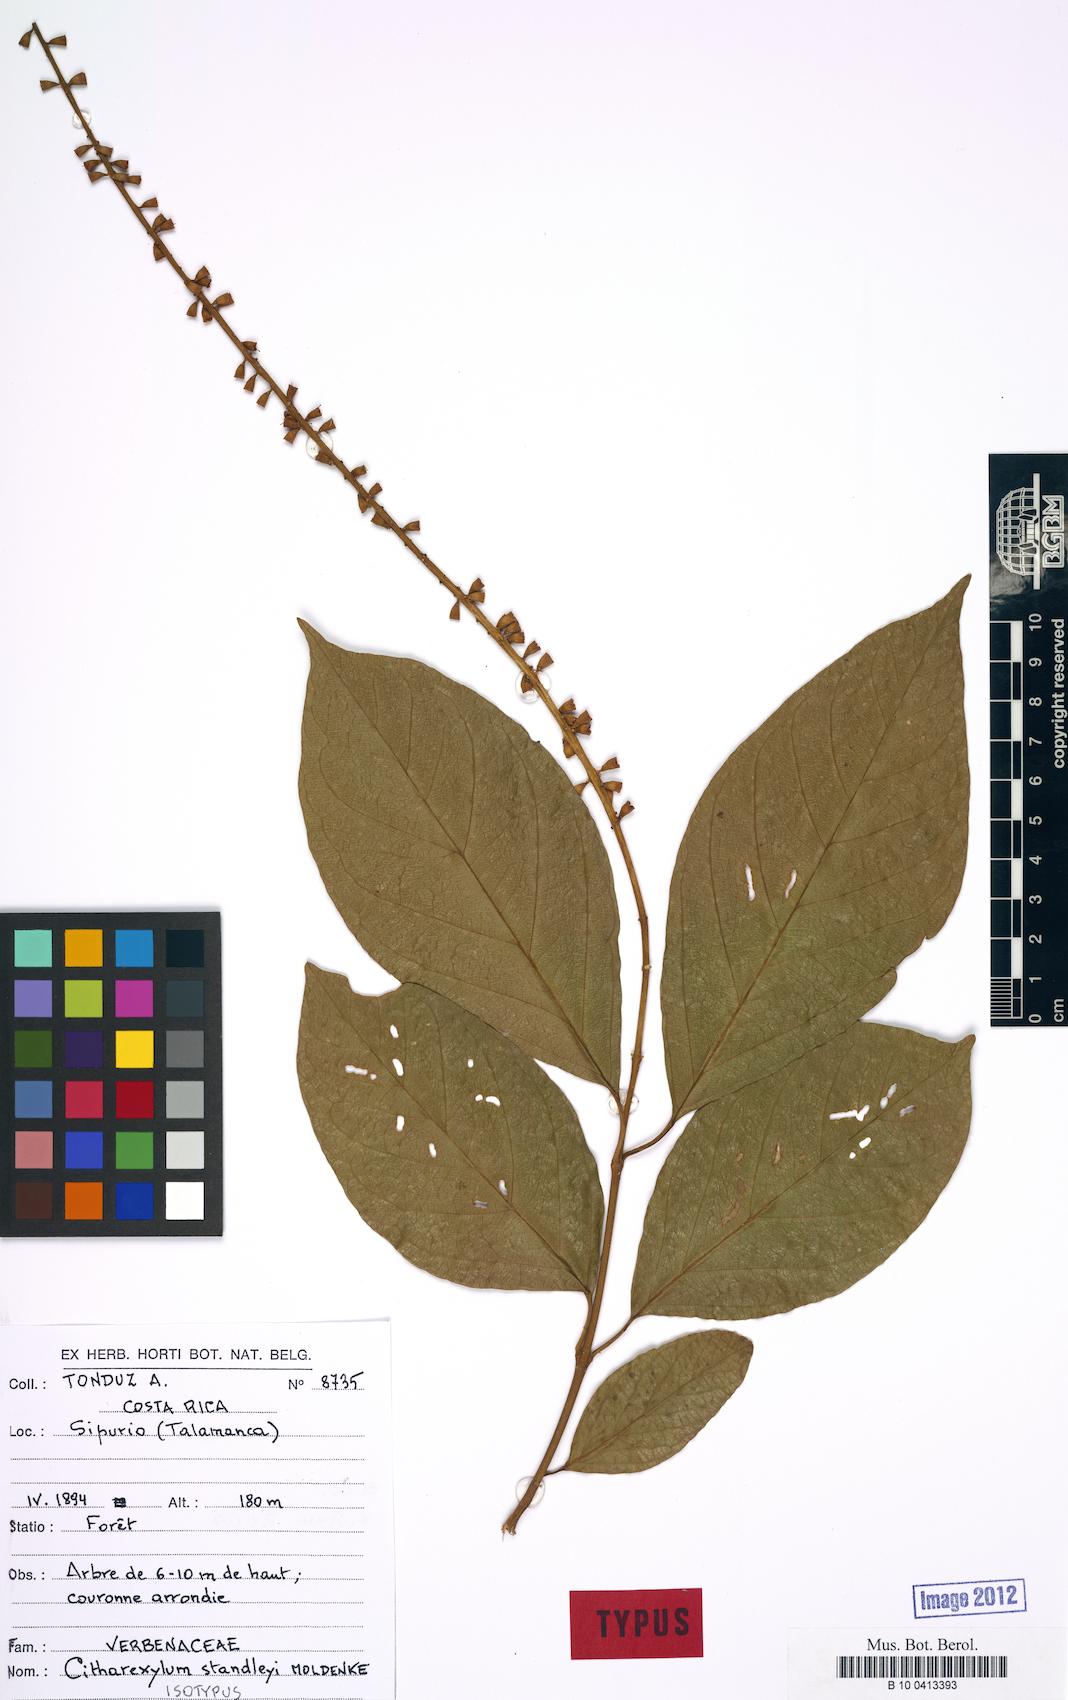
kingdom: Plantae
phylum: Tracheophyta
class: Magnoliopsida
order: Lamiales
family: Verbenaceae
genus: Citharexylum
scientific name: Citharexylum costaricense
